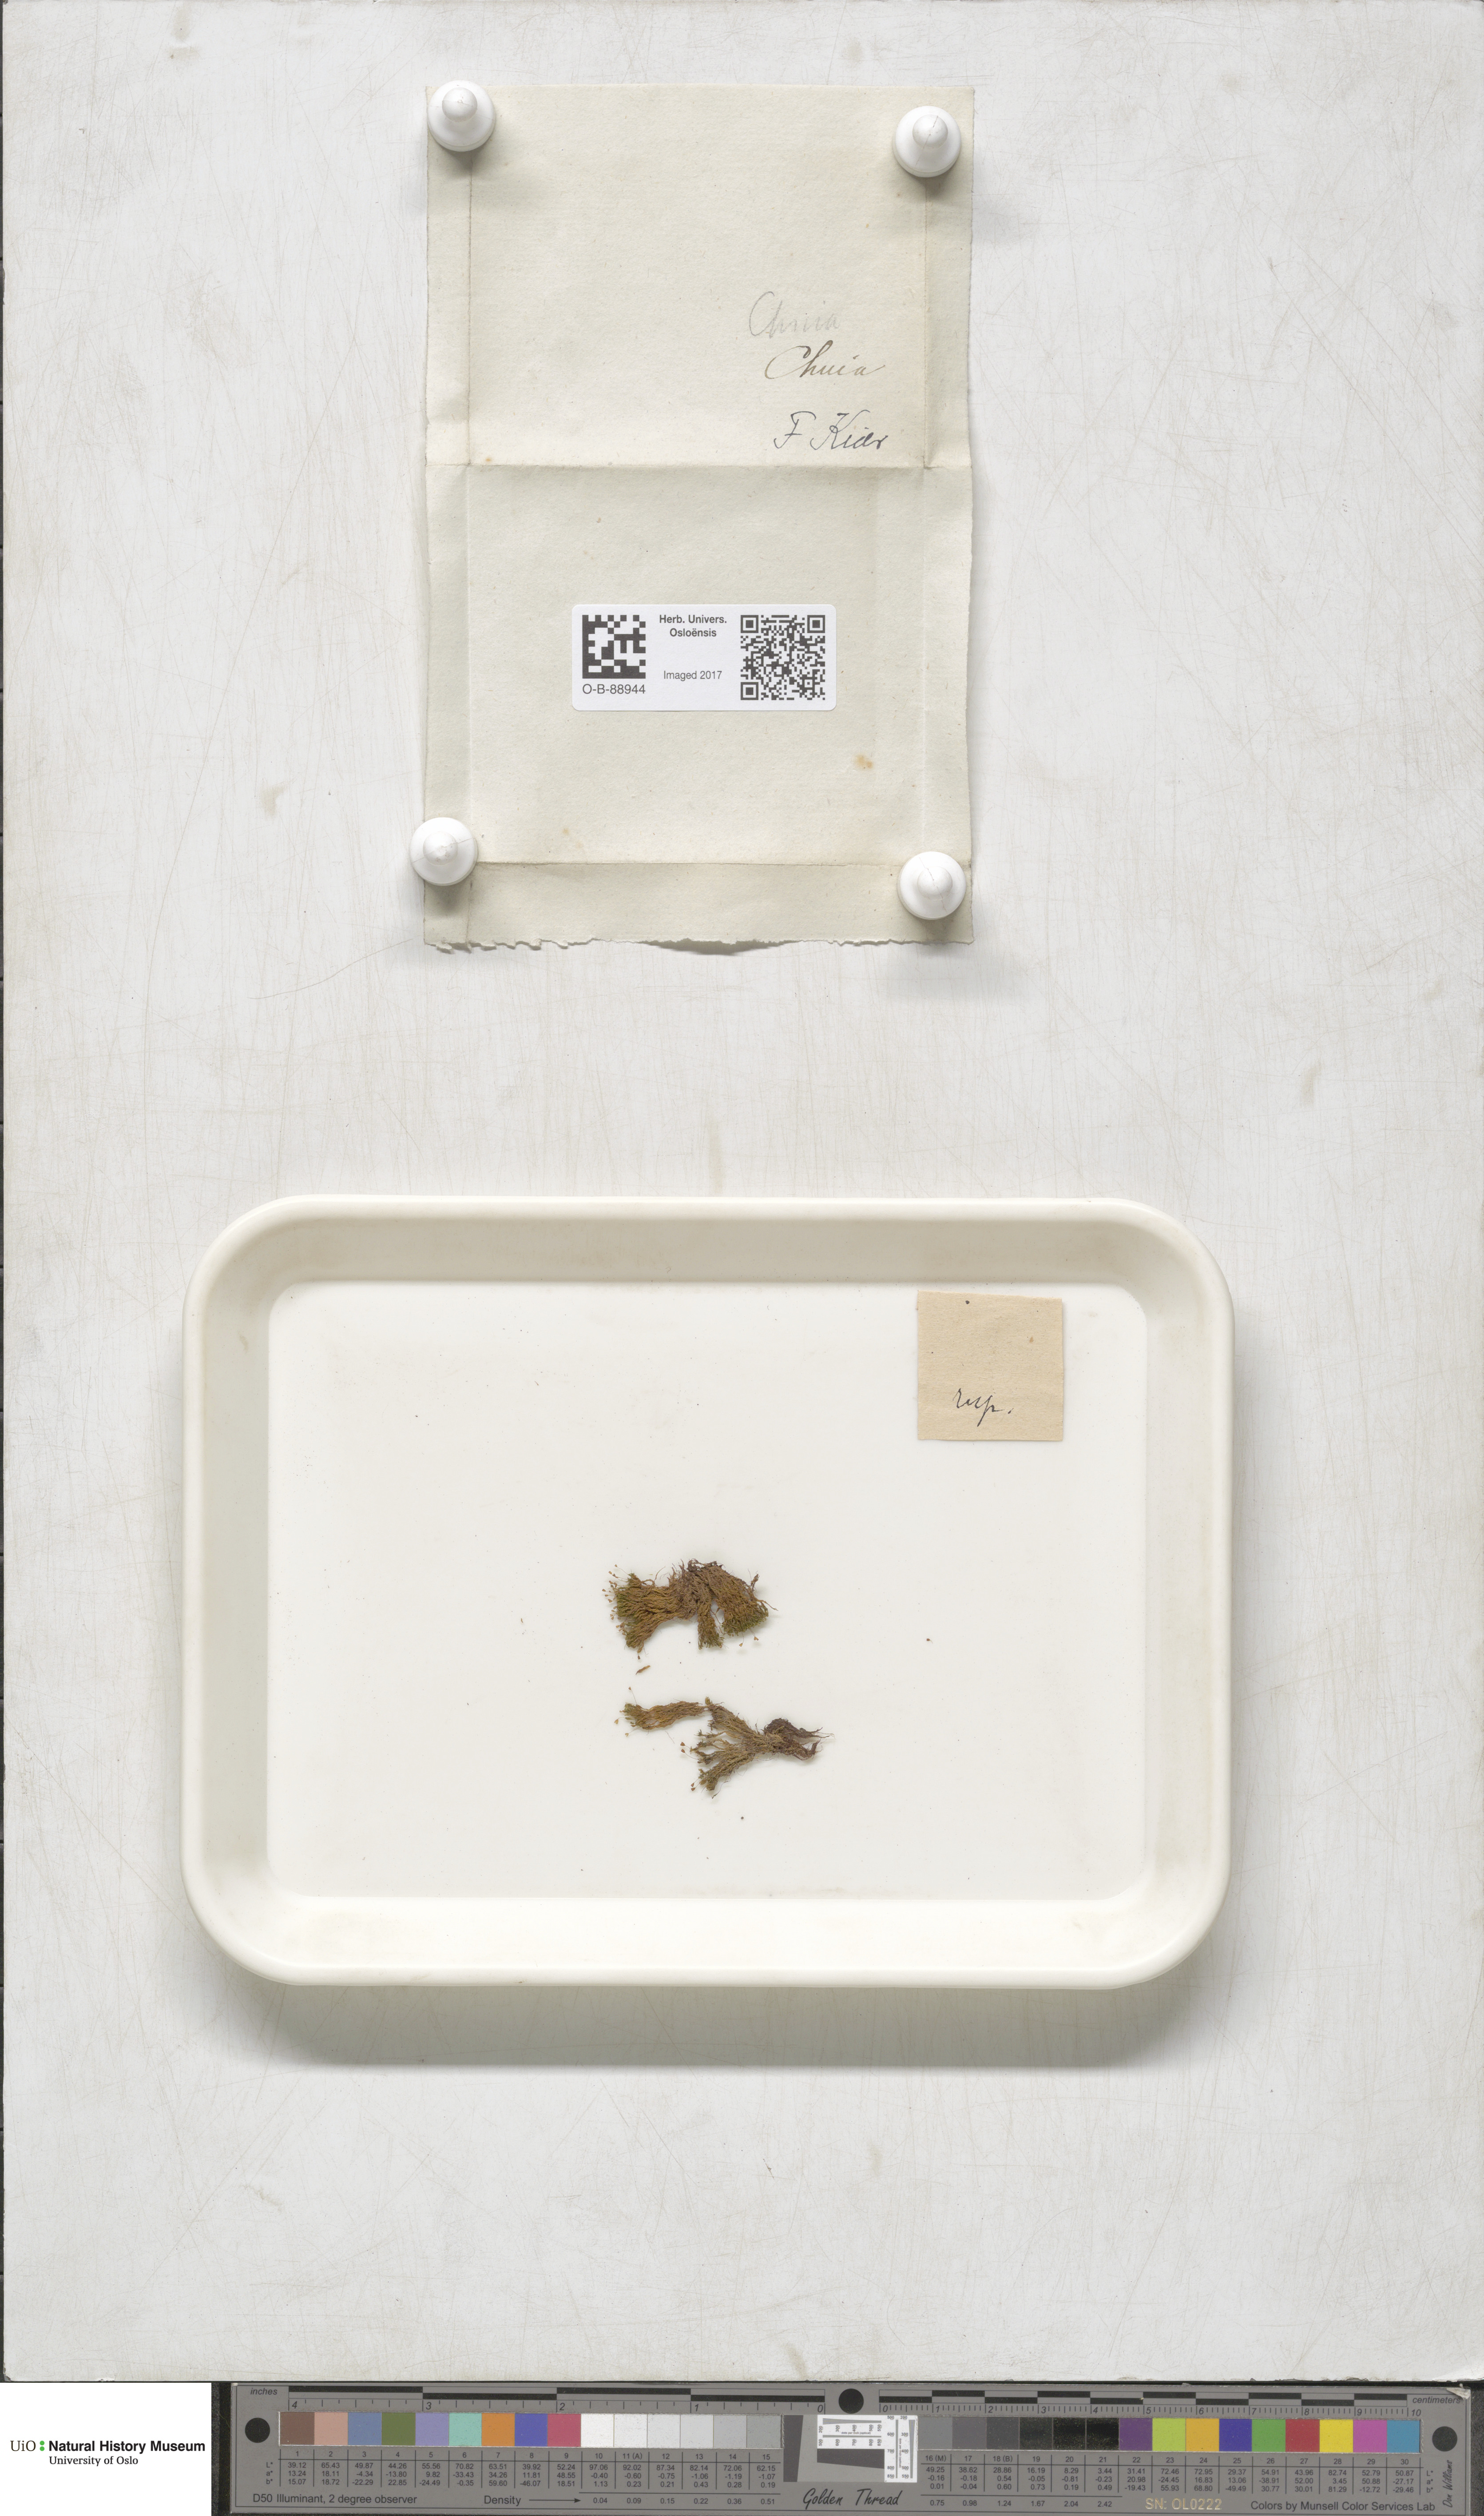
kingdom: Plantae
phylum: Bryophyta
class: Bryopsida
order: Pottiales
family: Pottiaceae
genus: Gymnostomum
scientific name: Gymnostomum aeruginosum
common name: Verdigris tufa-moss
